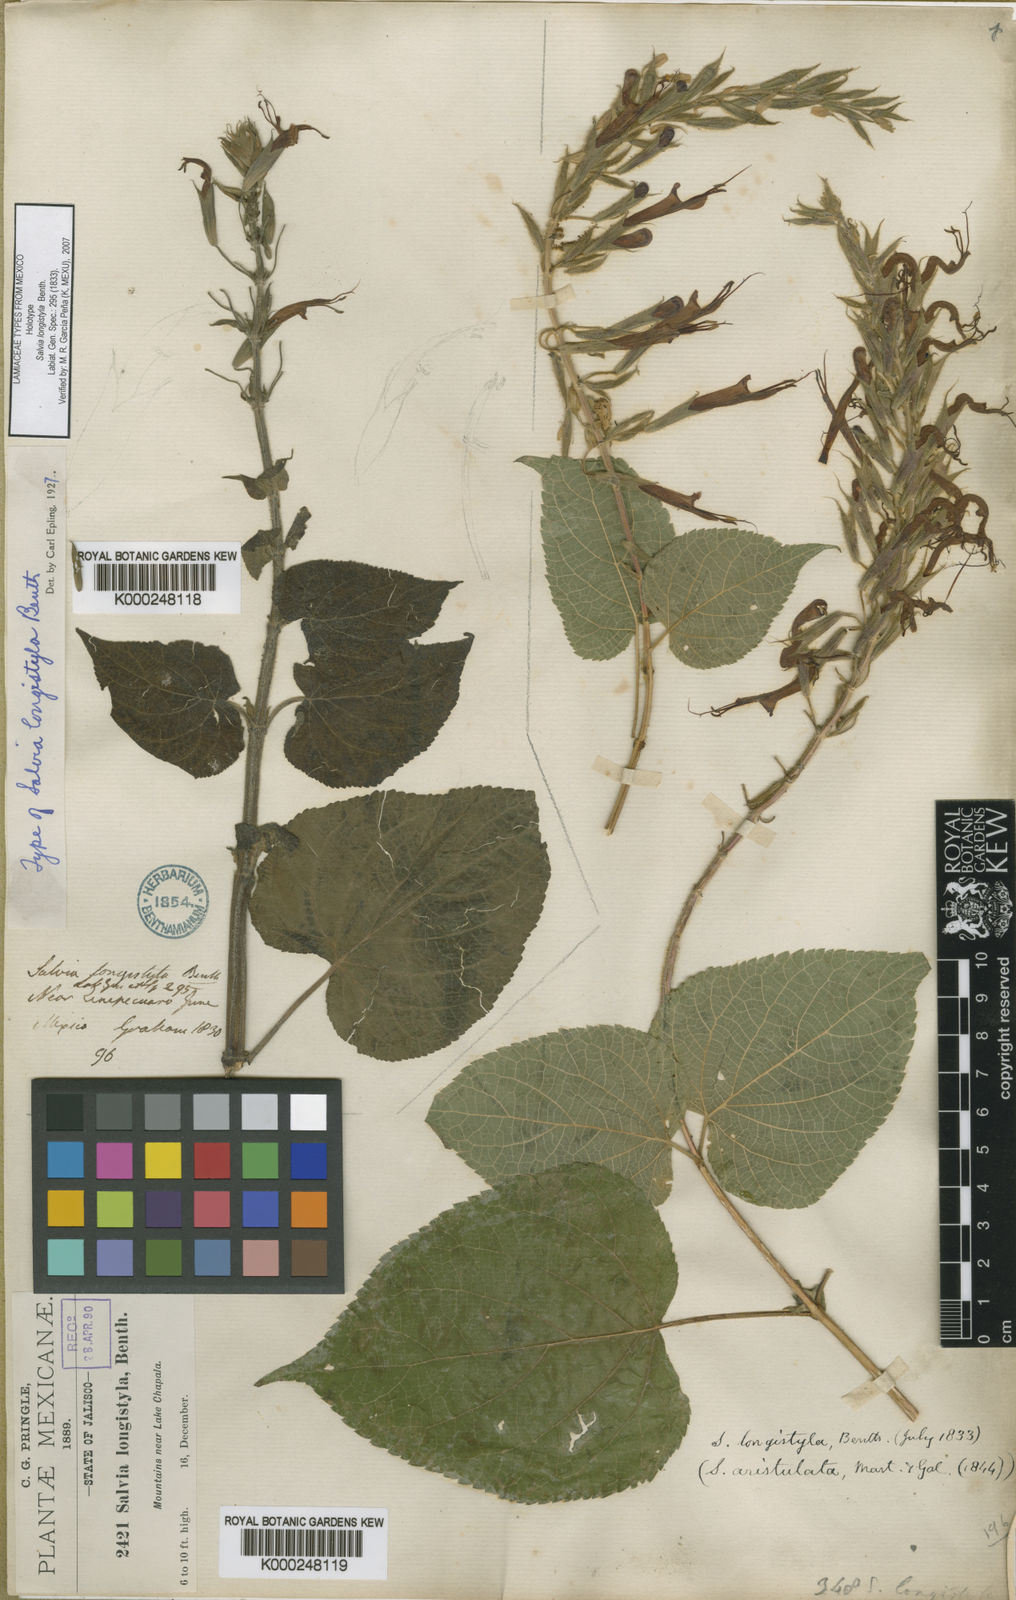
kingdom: Plantae
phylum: Tracheophyta
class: Magnoliopsida
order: Lamiales
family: Lamiaceae
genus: Salvia
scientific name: Salvia longistyla
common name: Mexican sage
